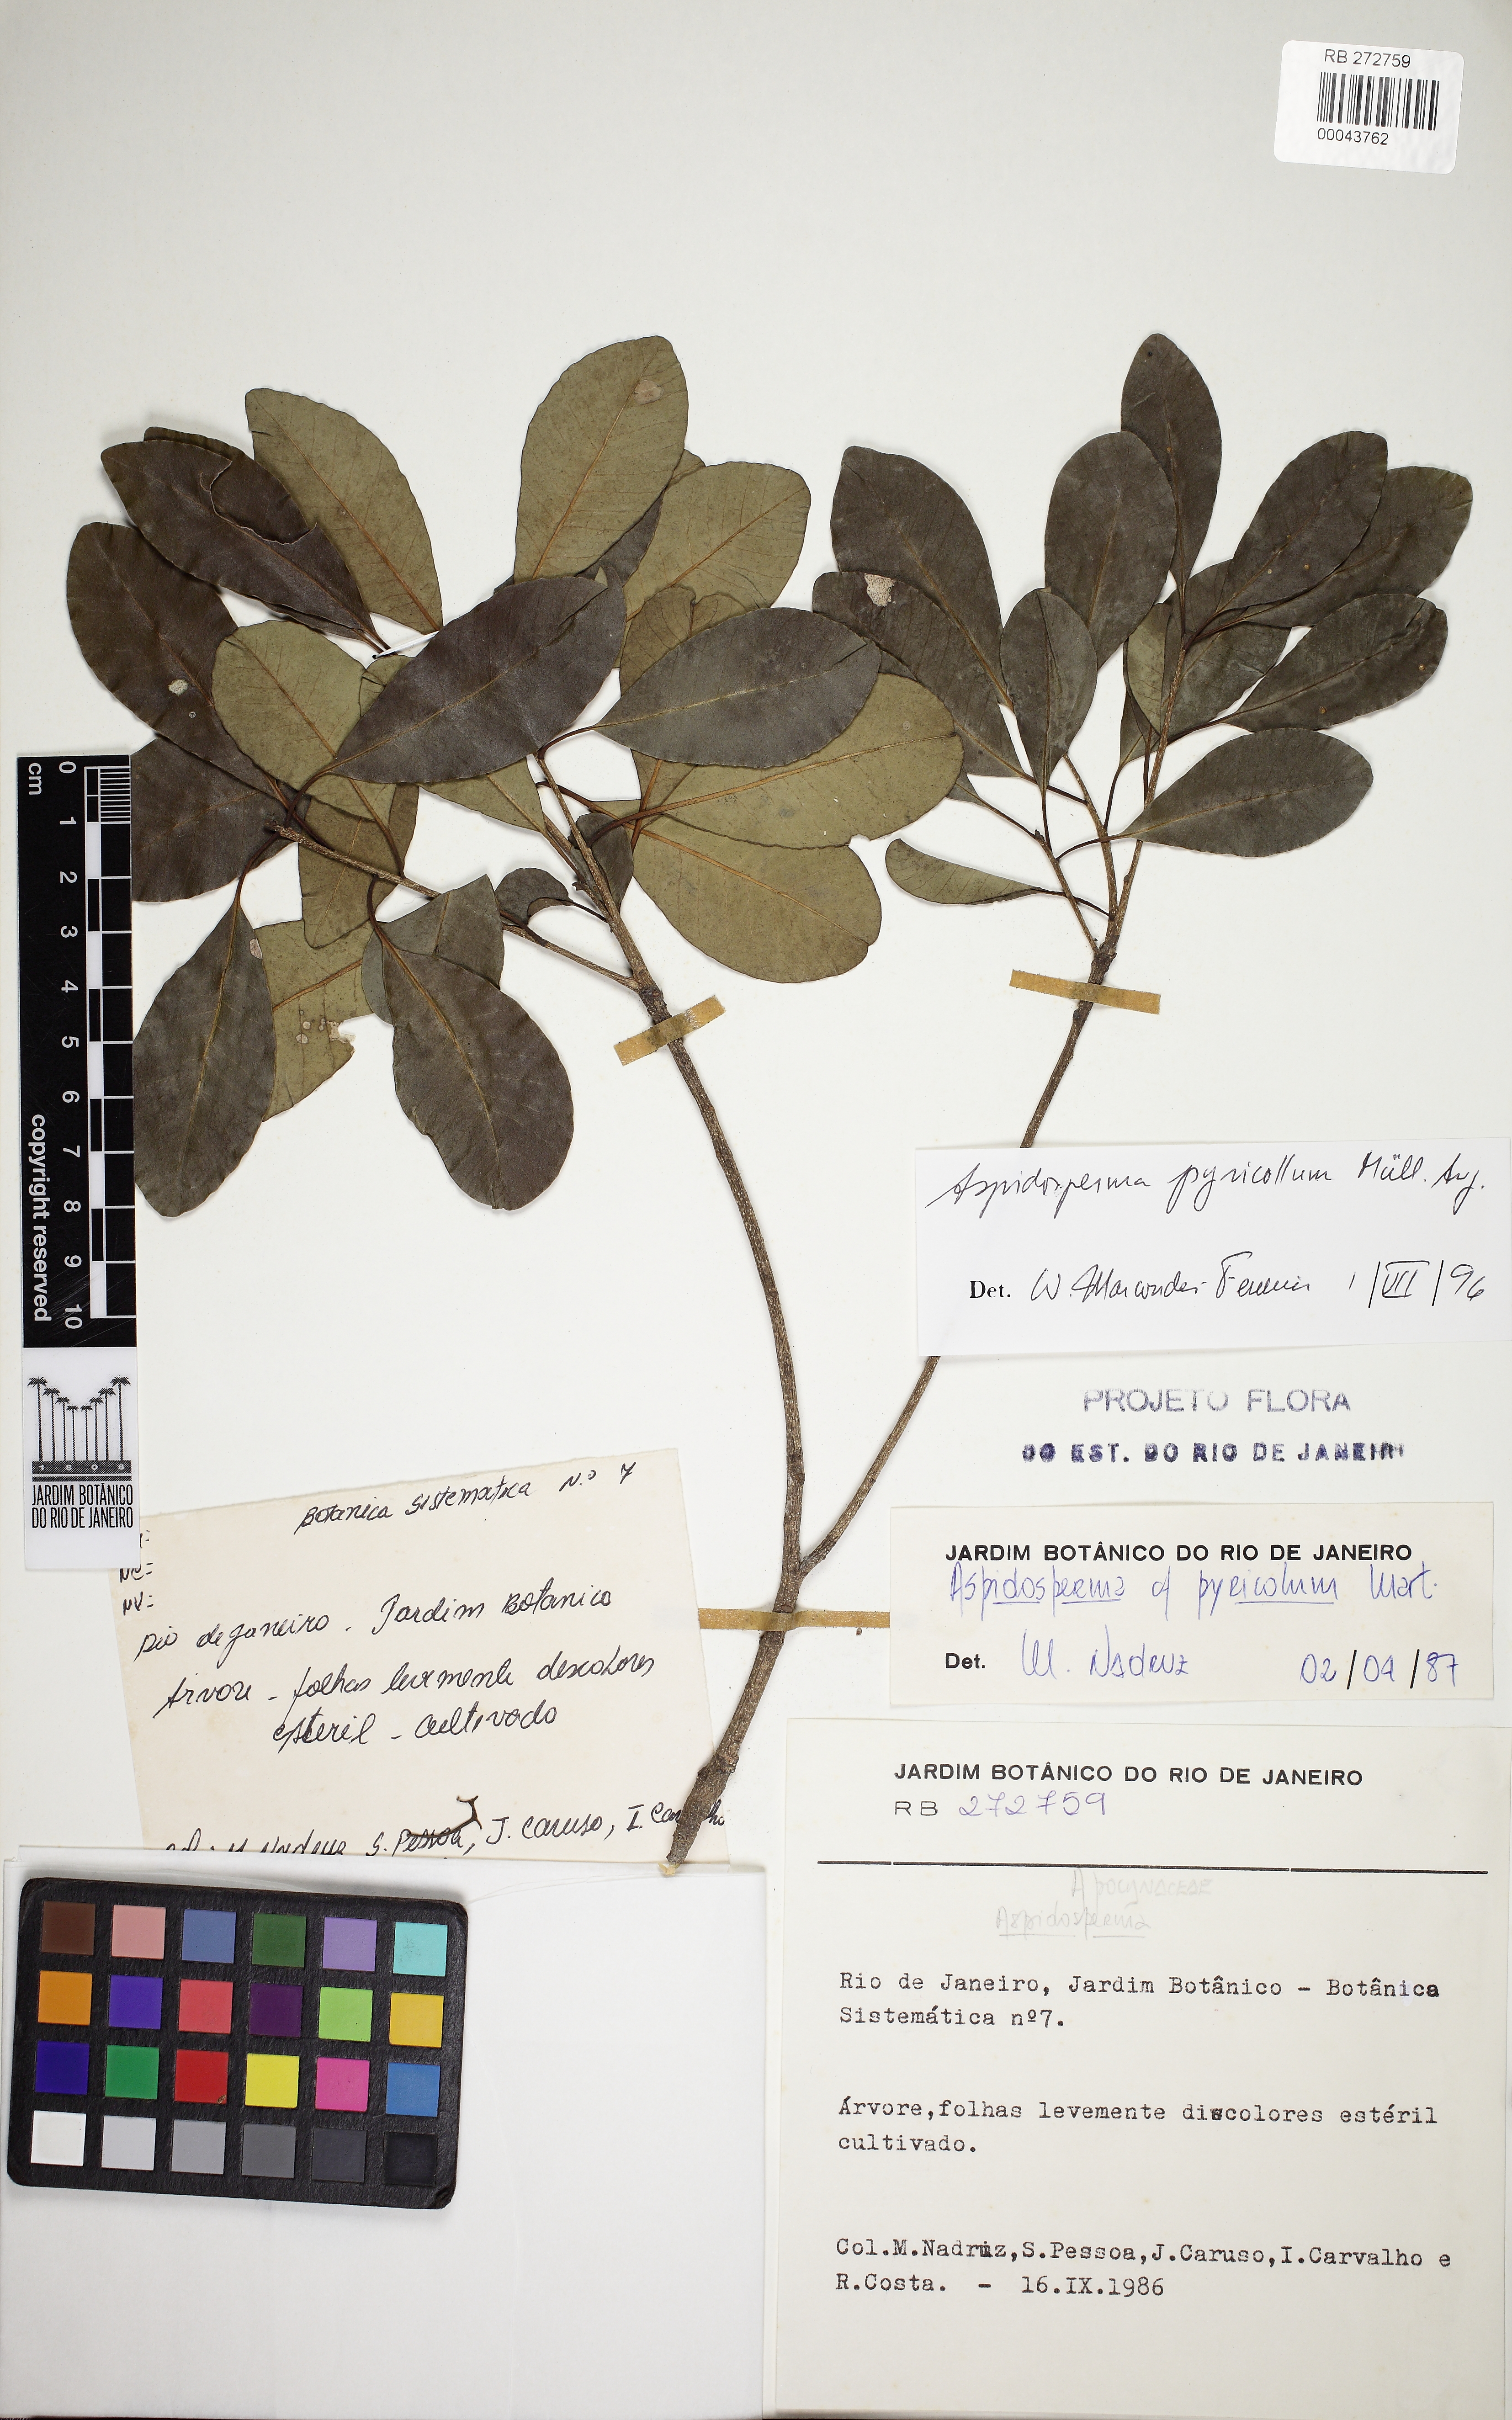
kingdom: Plantae
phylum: Tracheophyta
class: Magnoliopsida
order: Gentianales
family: Apocynaceae
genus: Aspidosperma
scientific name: Aspidosperma pyricollum
